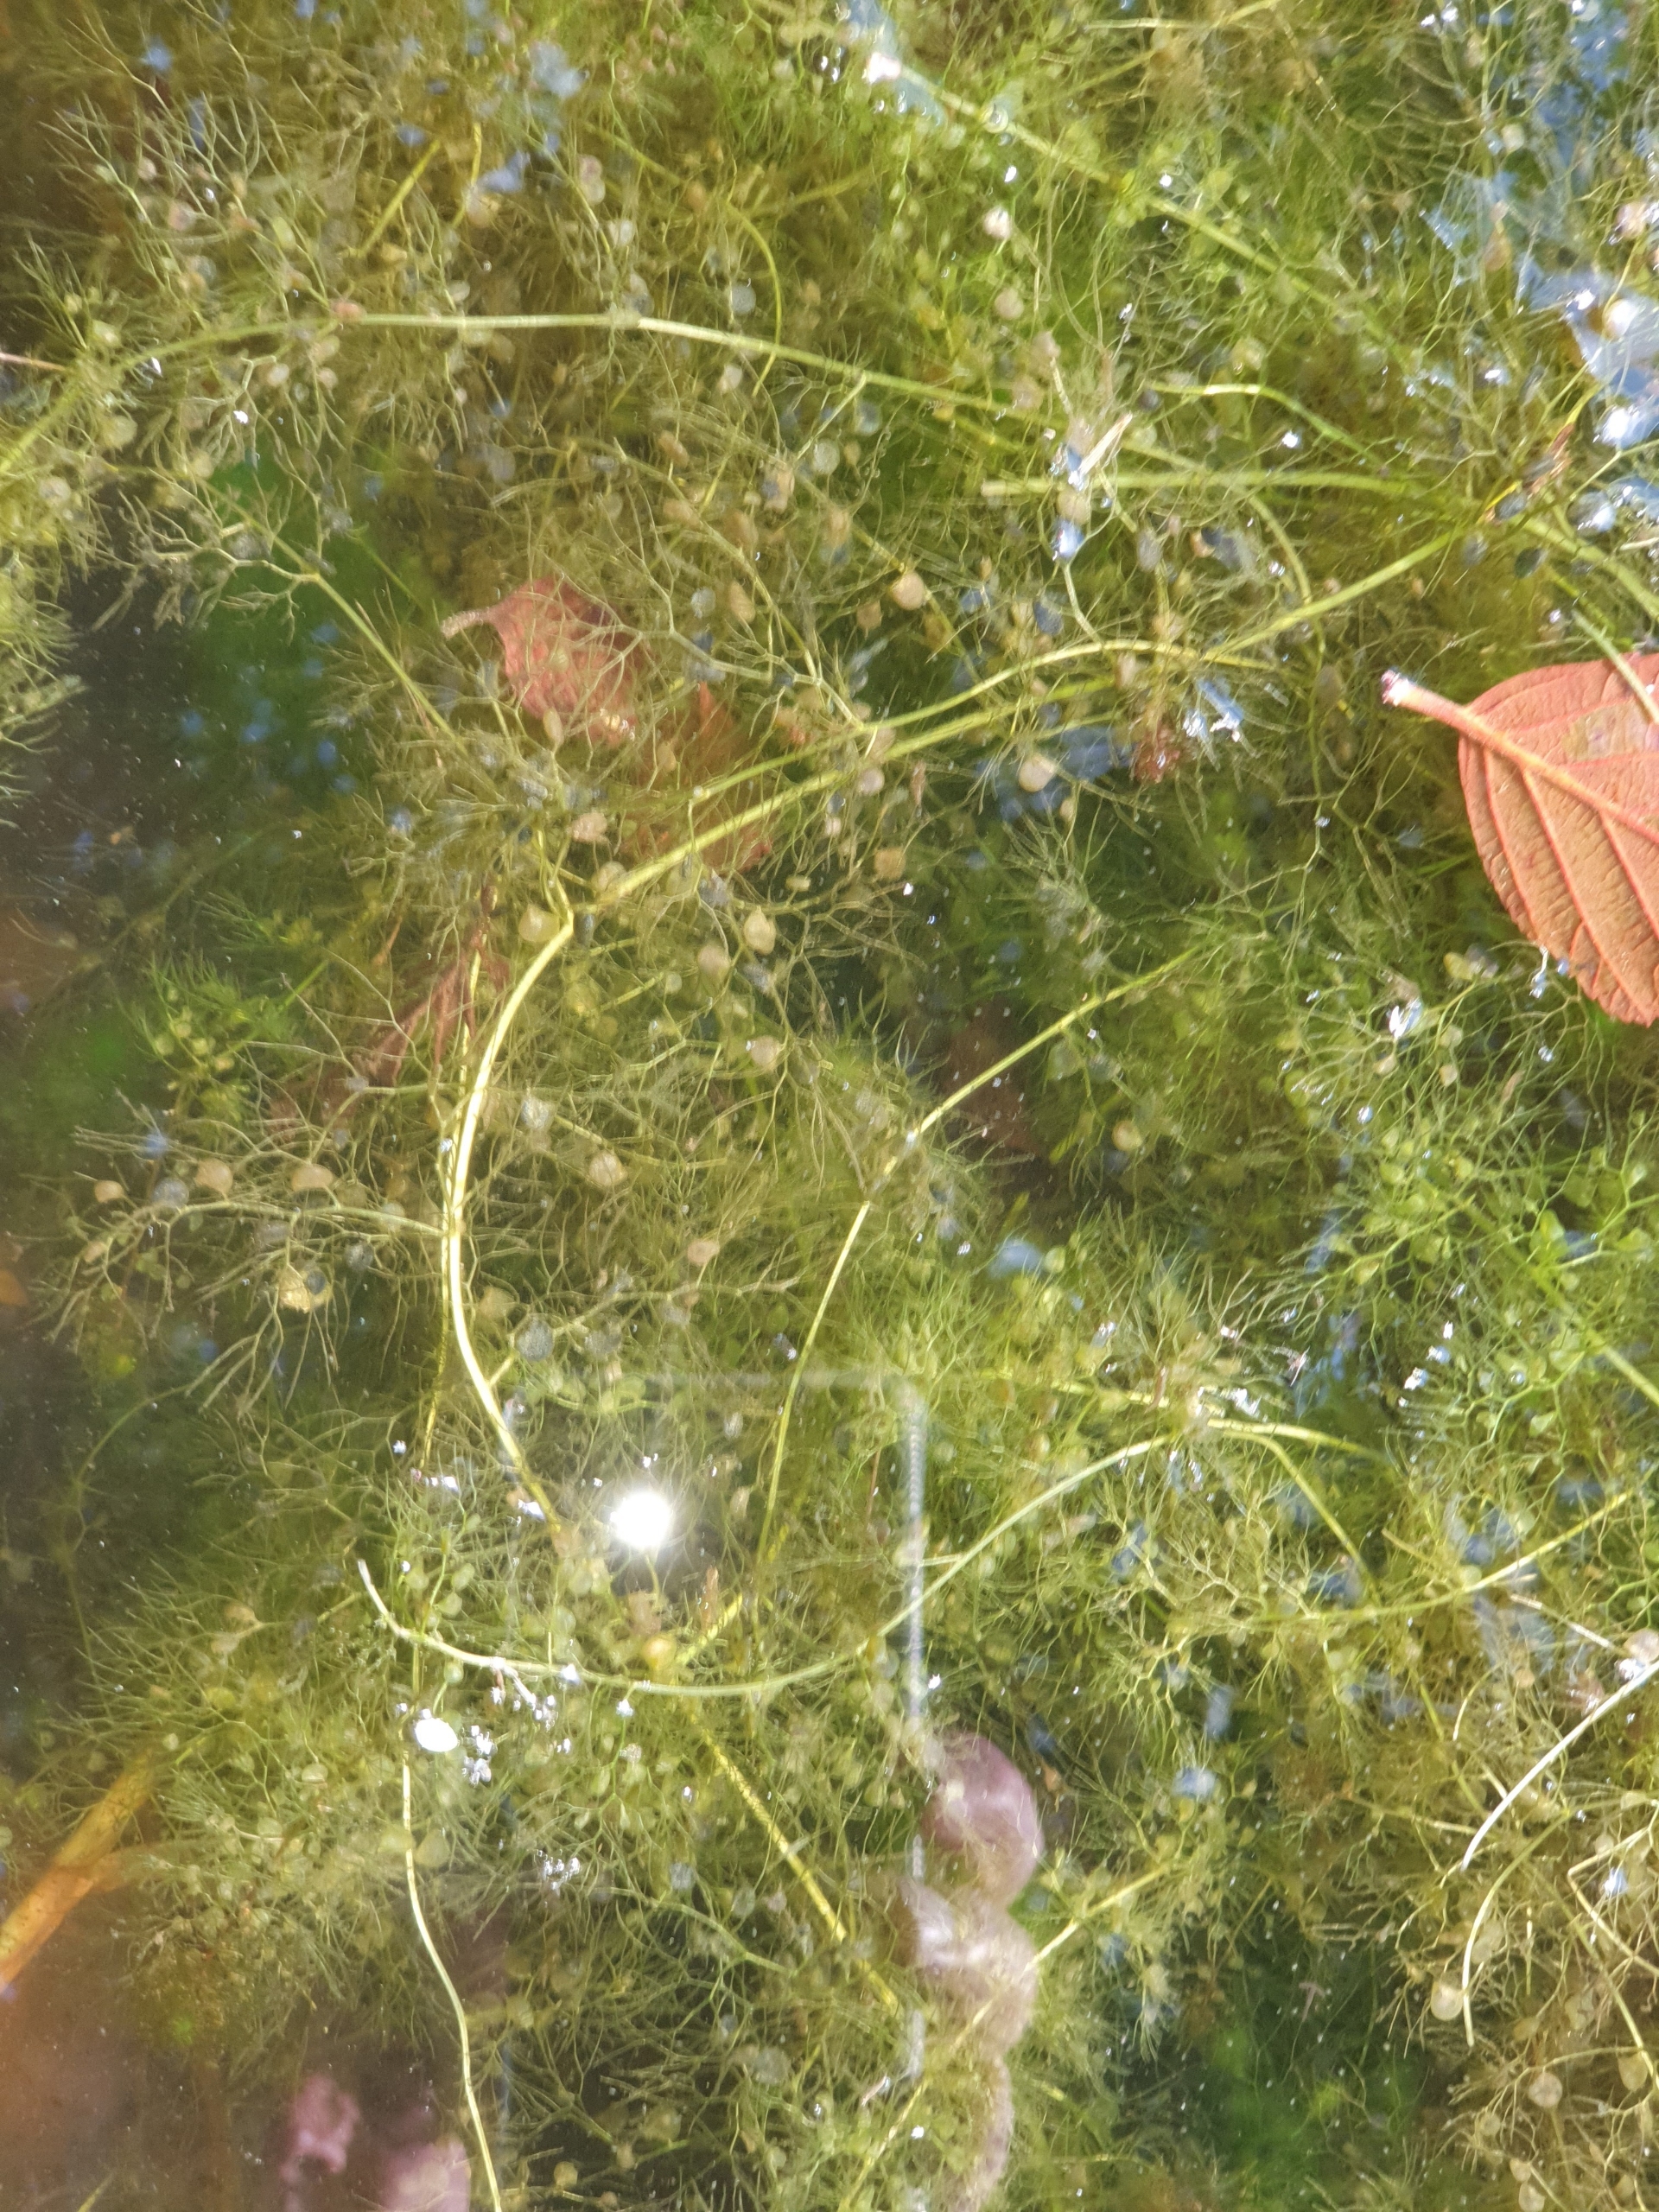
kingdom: Plantae
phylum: Tracheophyta
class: Magnoliopsida
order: Lamiales
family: Lentibulariaceae
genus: Utricularia
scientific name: Utricularia vulgaris
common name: Almindelig blærerod
